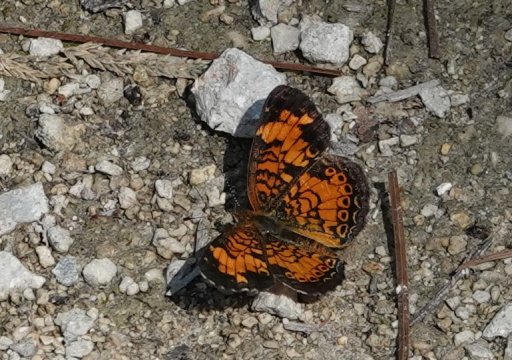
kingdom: Animalia
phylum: Arthropoda
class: Insecta
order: Lepidoptera
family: Nymphalidae
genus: Phyciodes
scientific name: Phyciodes tharos
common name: Pearl Crescent
